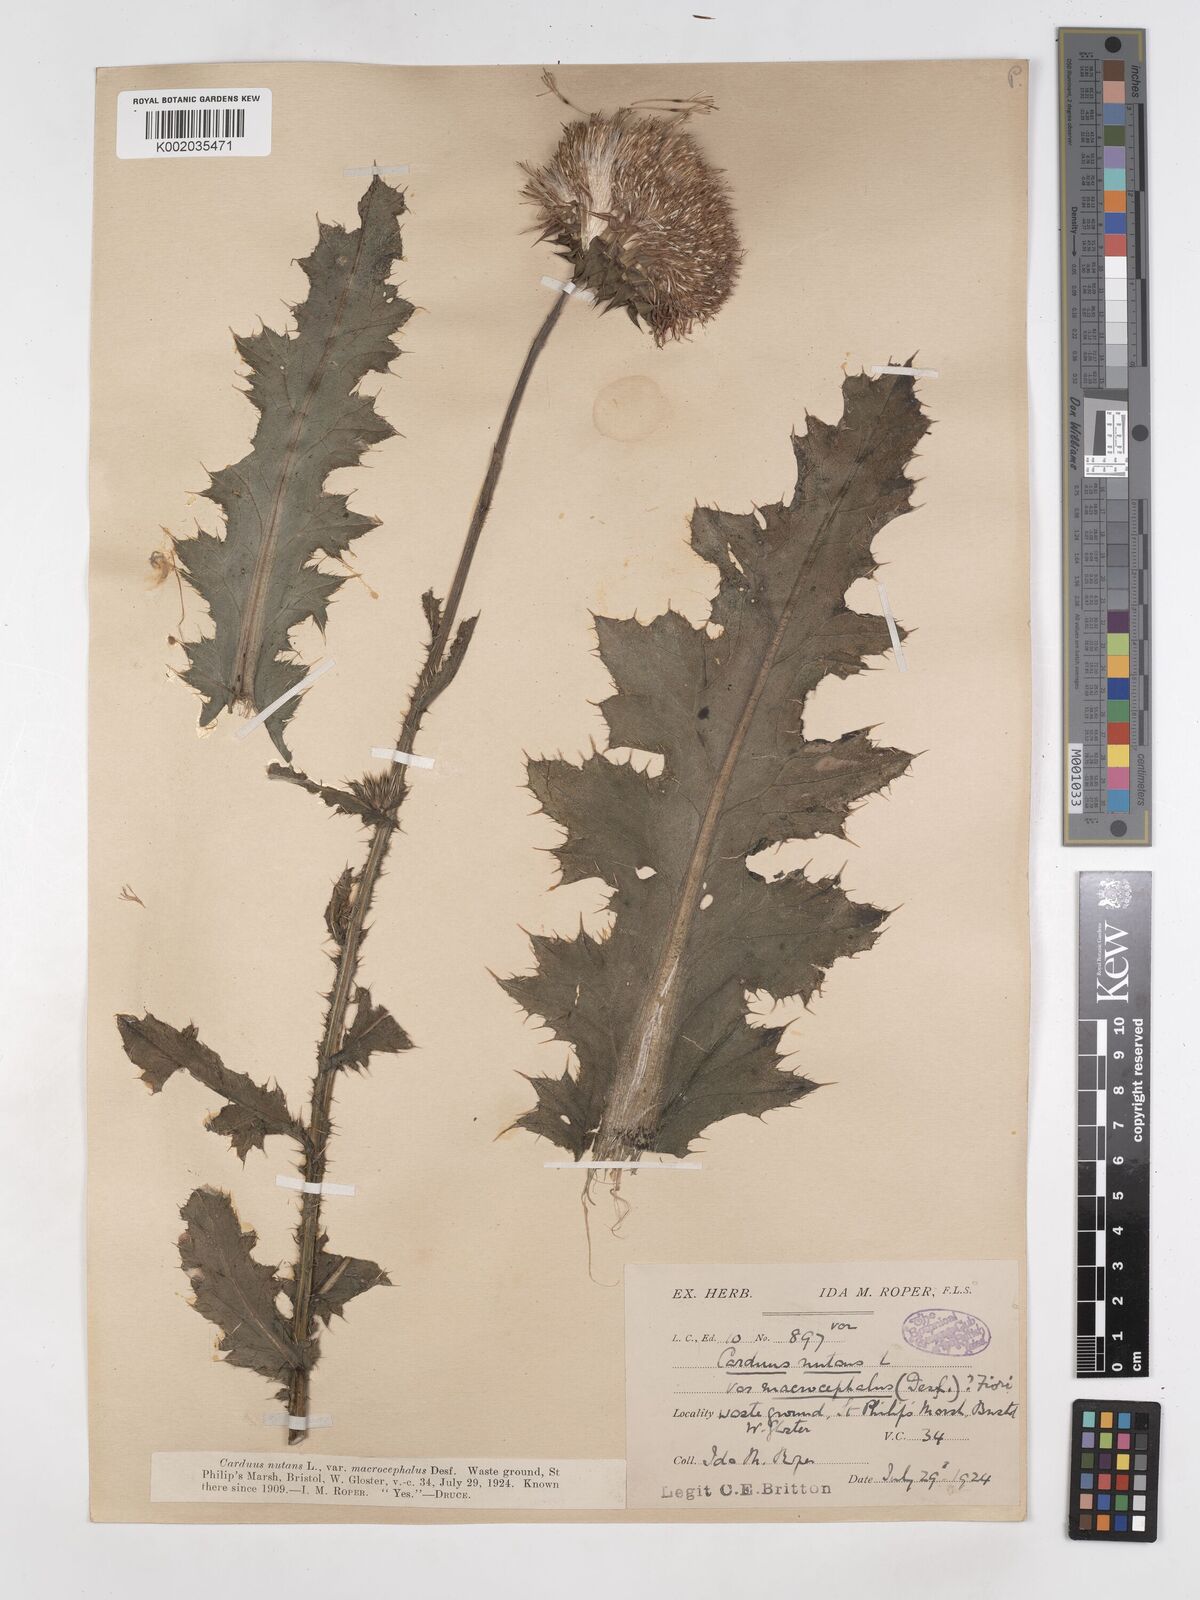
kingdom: Plantae
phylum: Tracheophyta
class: Magnoliopsida
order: Asterales
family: Asteraceae
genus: Carduus
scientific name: Carduus macrocephalus
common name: Giant thistle
